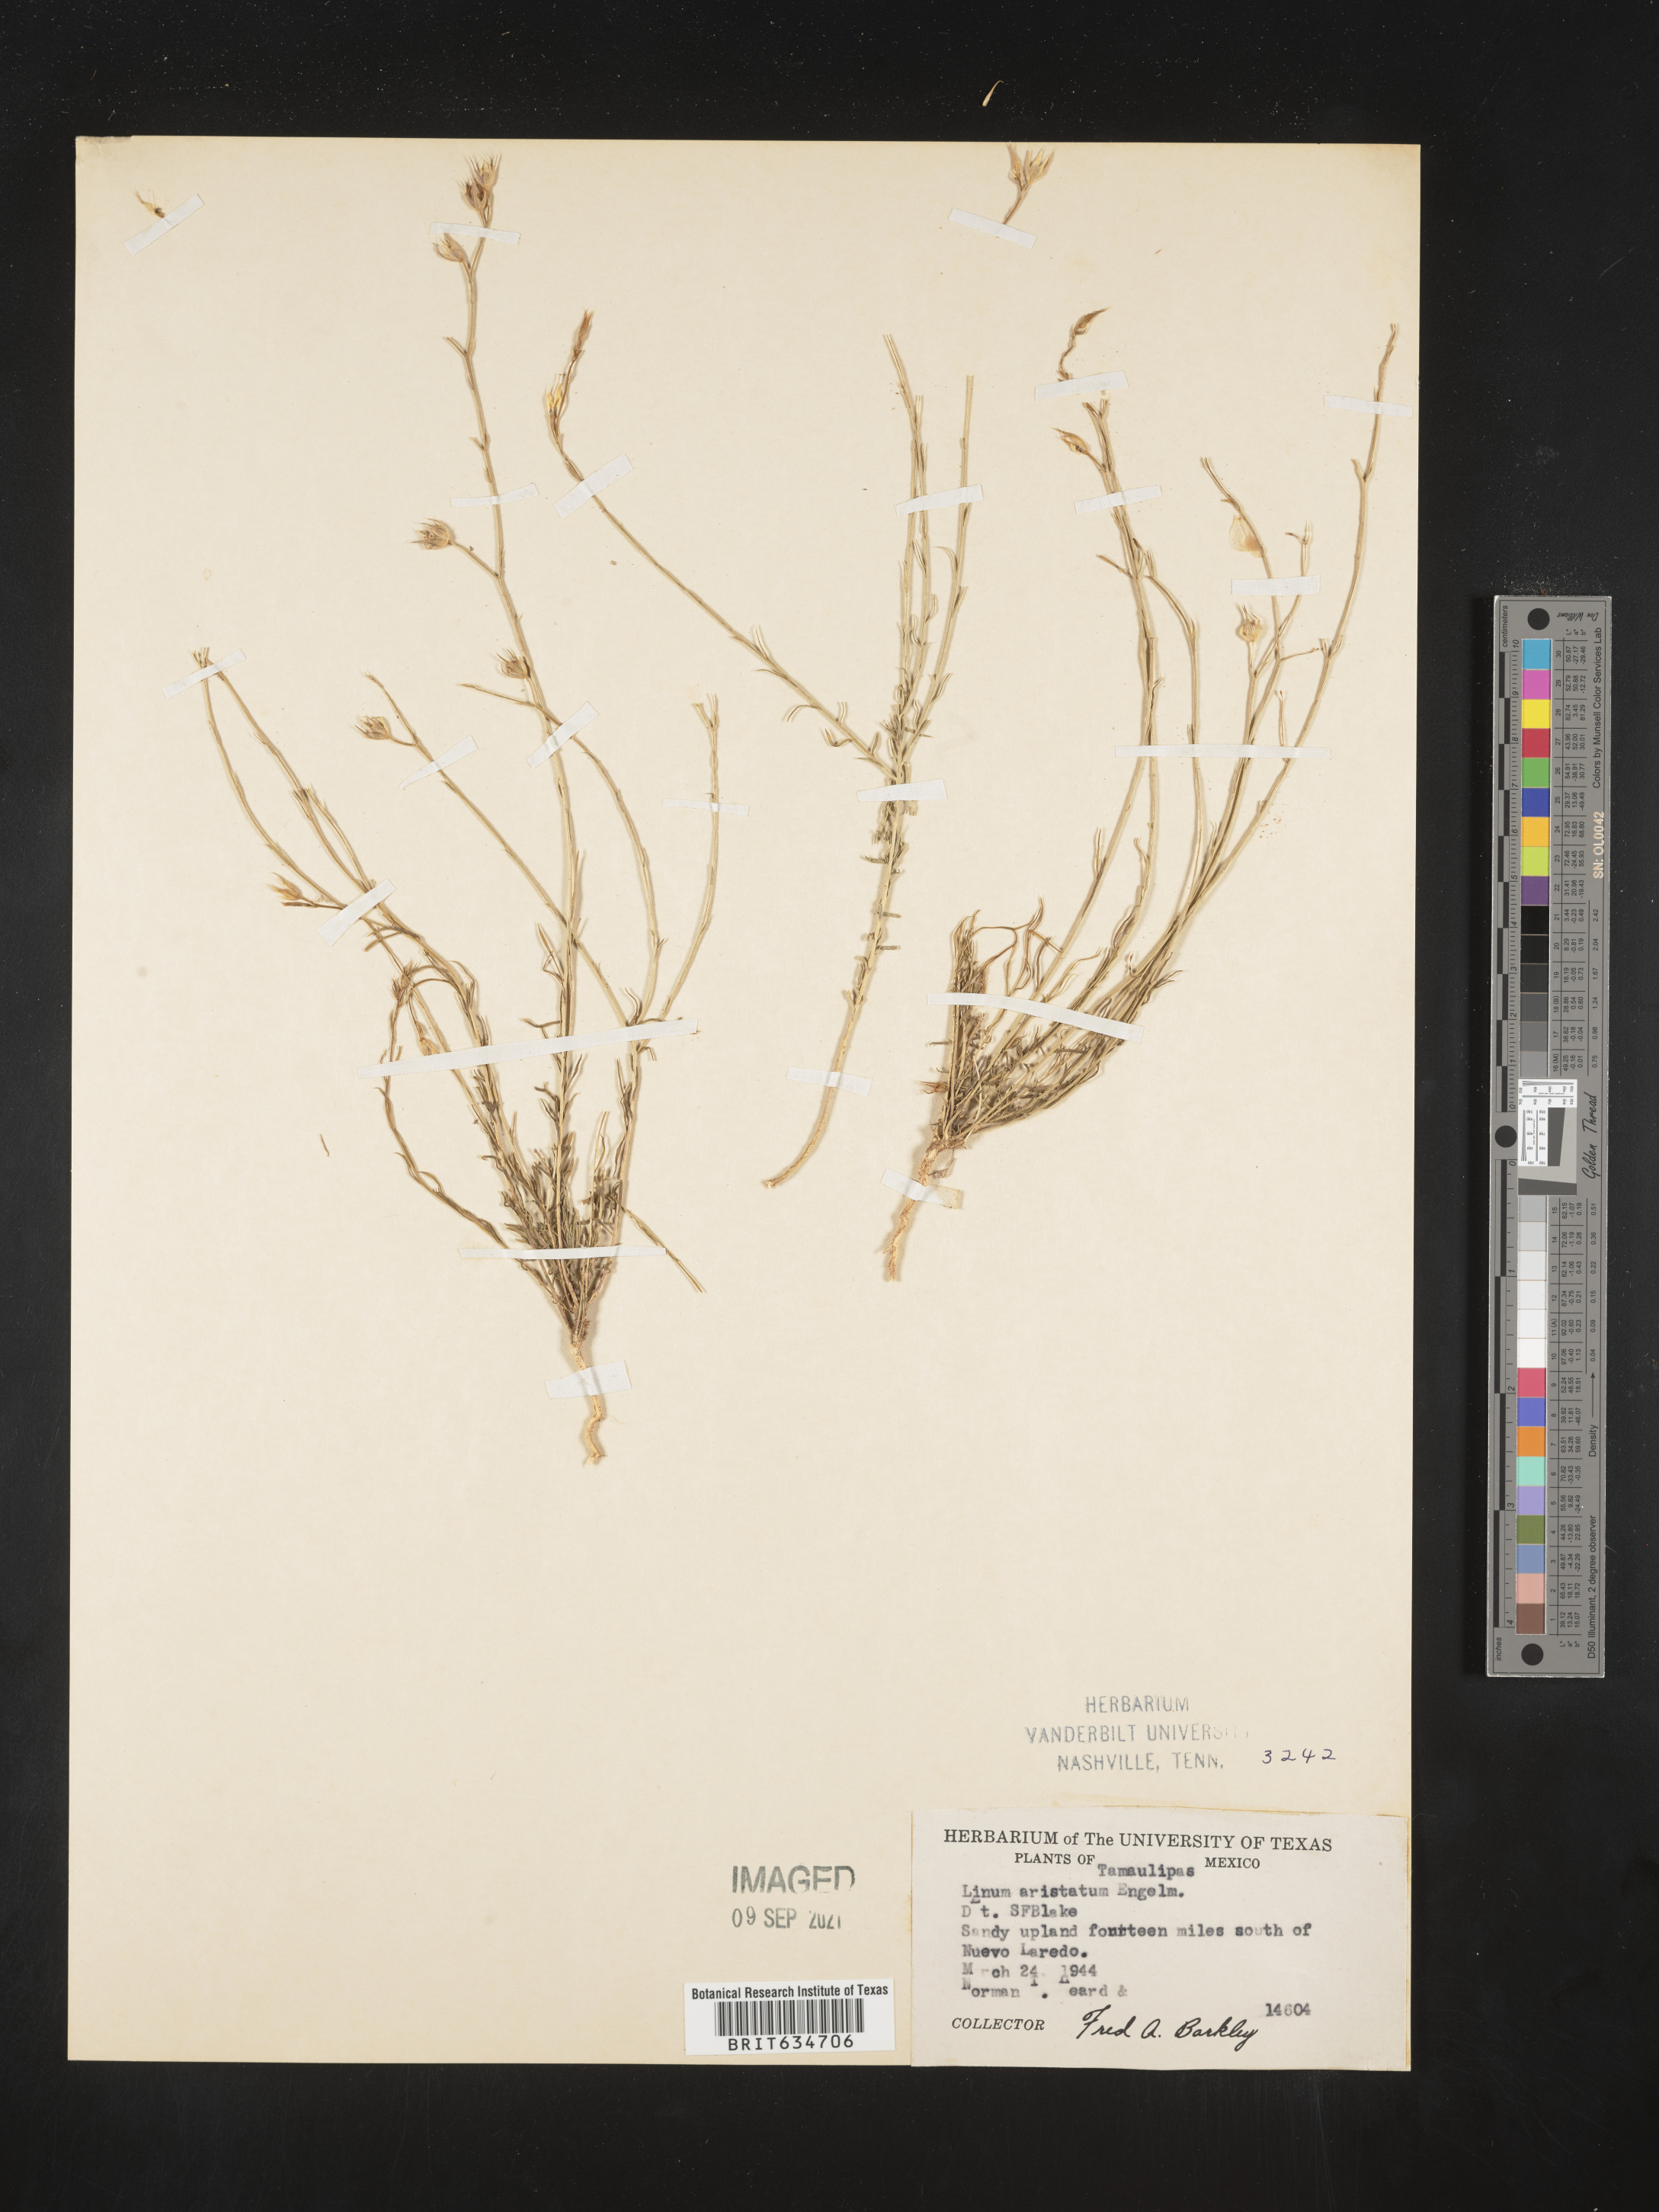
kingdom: Plantae
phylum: Tracheophyta
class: Magnoliopsida
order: Malpighiales
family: Linaceae
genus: Linum
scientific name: Linum
